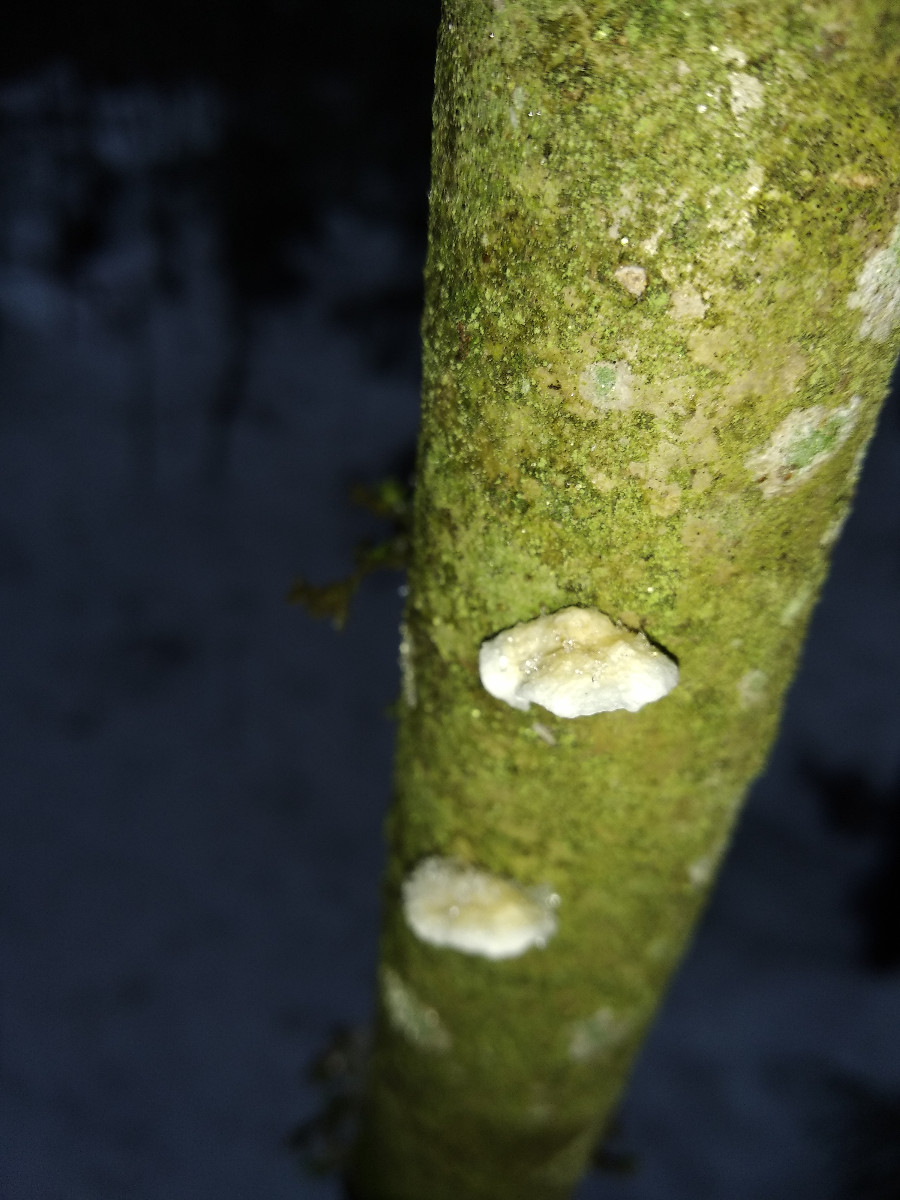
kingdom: Fungi
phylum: Basidiomycota
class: Agaricomycetes
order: Agaricales
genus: Plicatura
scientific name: Plicatura
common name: krusblad
